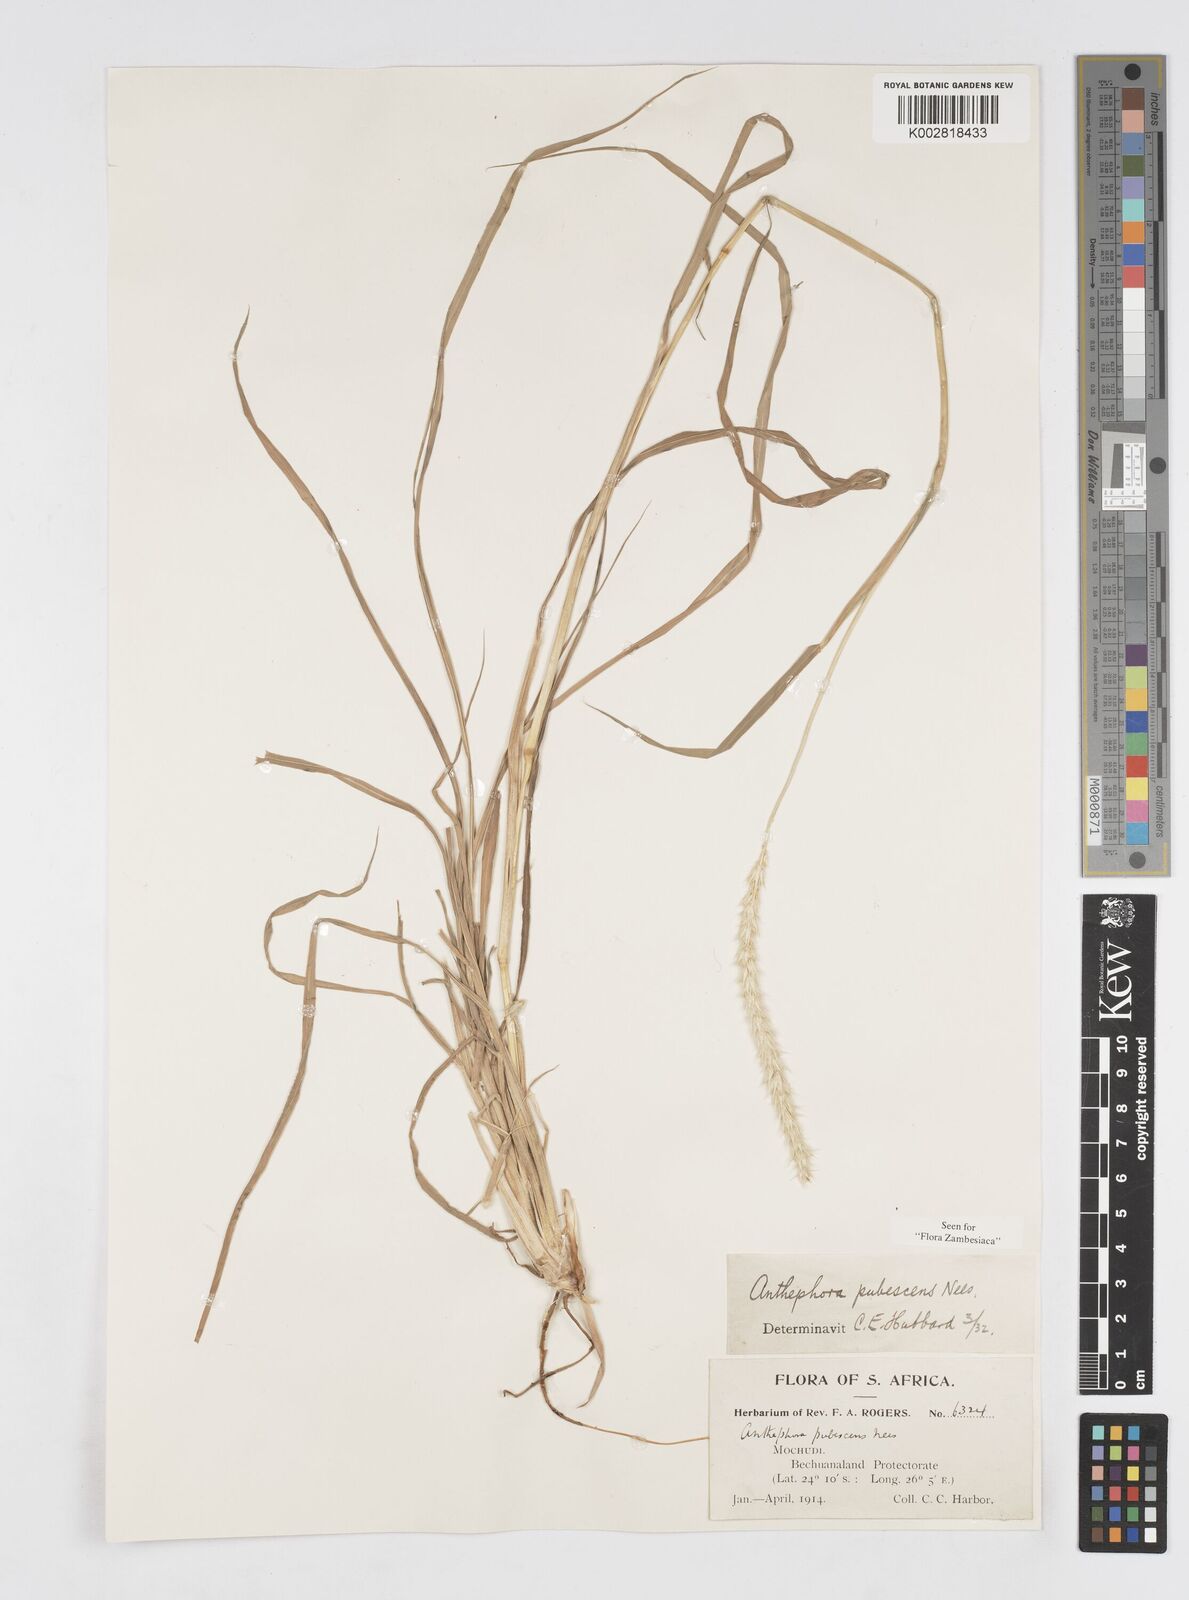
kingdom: Plantae
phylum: Tracheophyta
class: Liliopsida
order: Poales
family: Poaceae
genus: Anthephora
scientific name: Anthephora pubescens
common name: Wool grass
